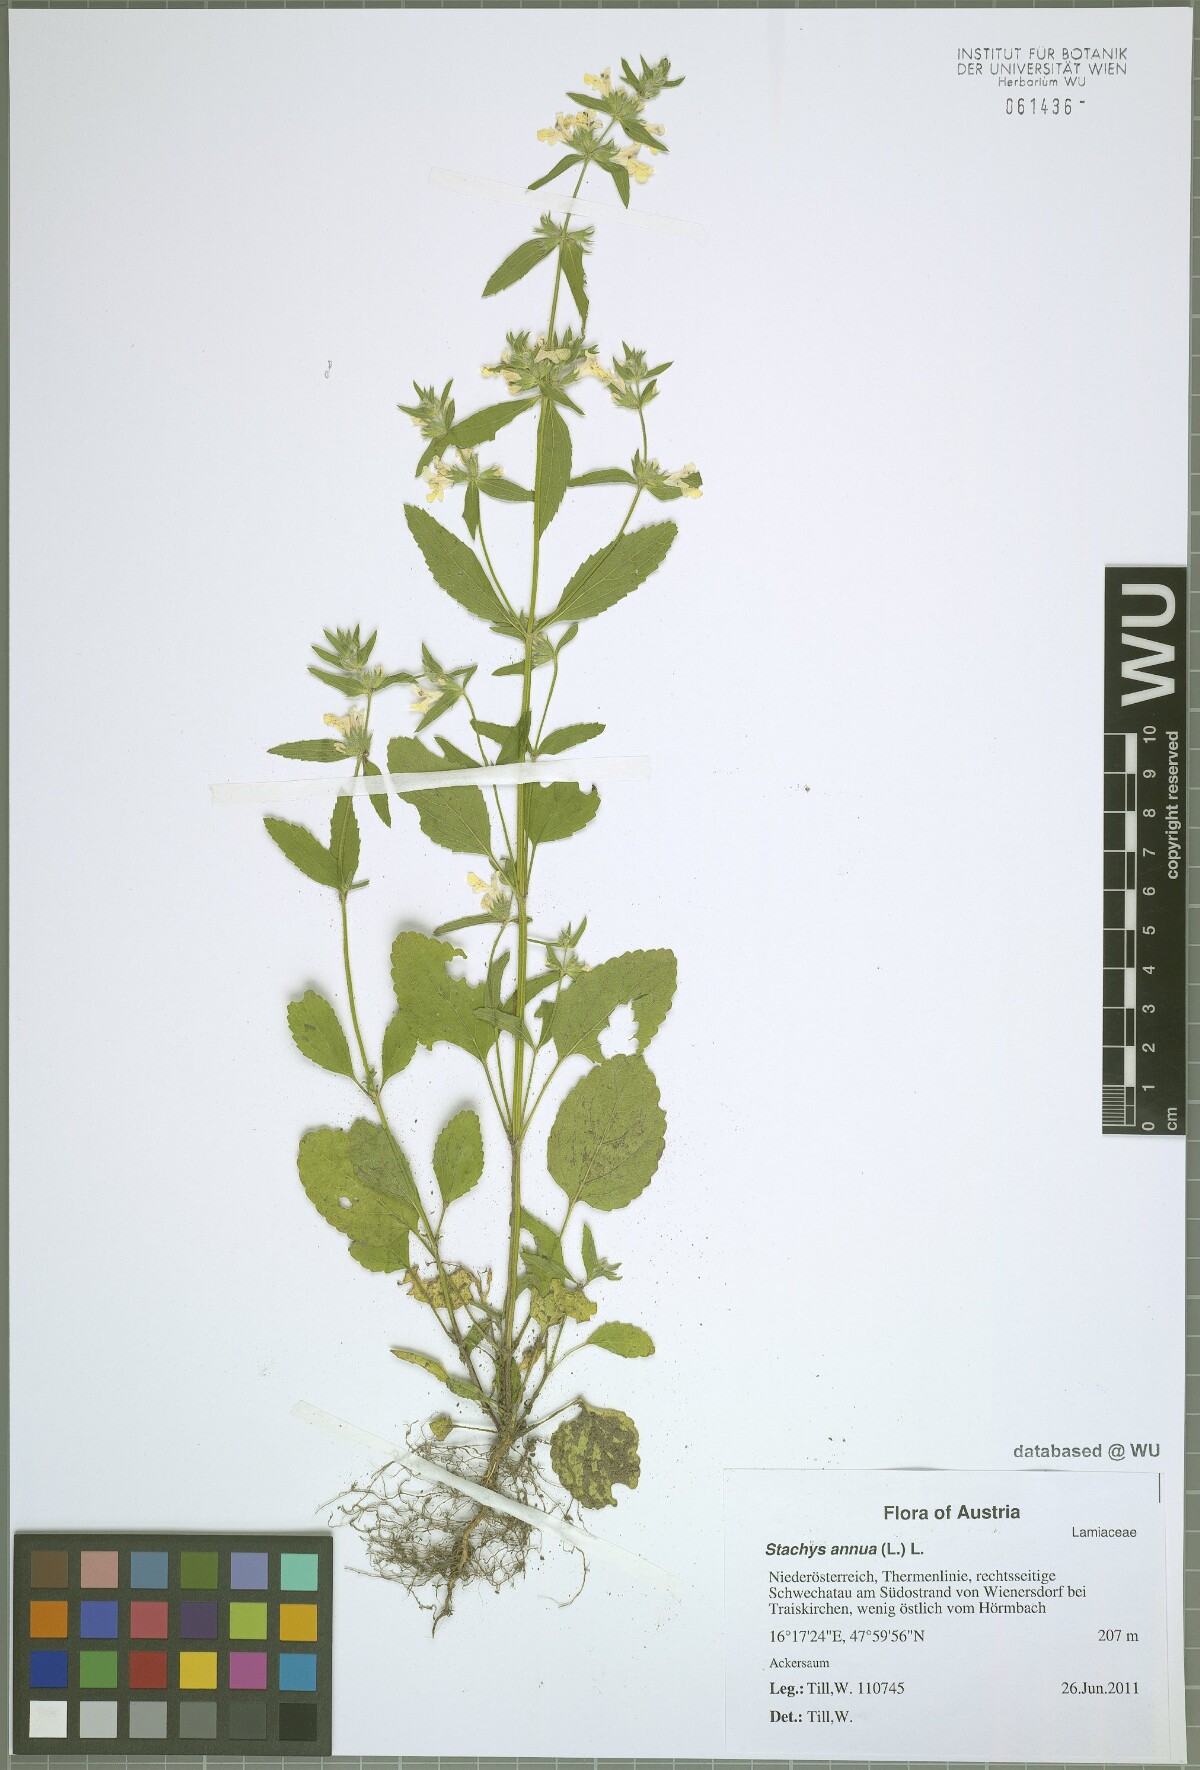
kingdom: Plantae
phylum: Tracheophyta
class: Magnoliopsida
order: Lamiales
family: Lamiaceae
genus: Stachys
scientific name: Stachys annua
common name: Annual yellow-woundwort
